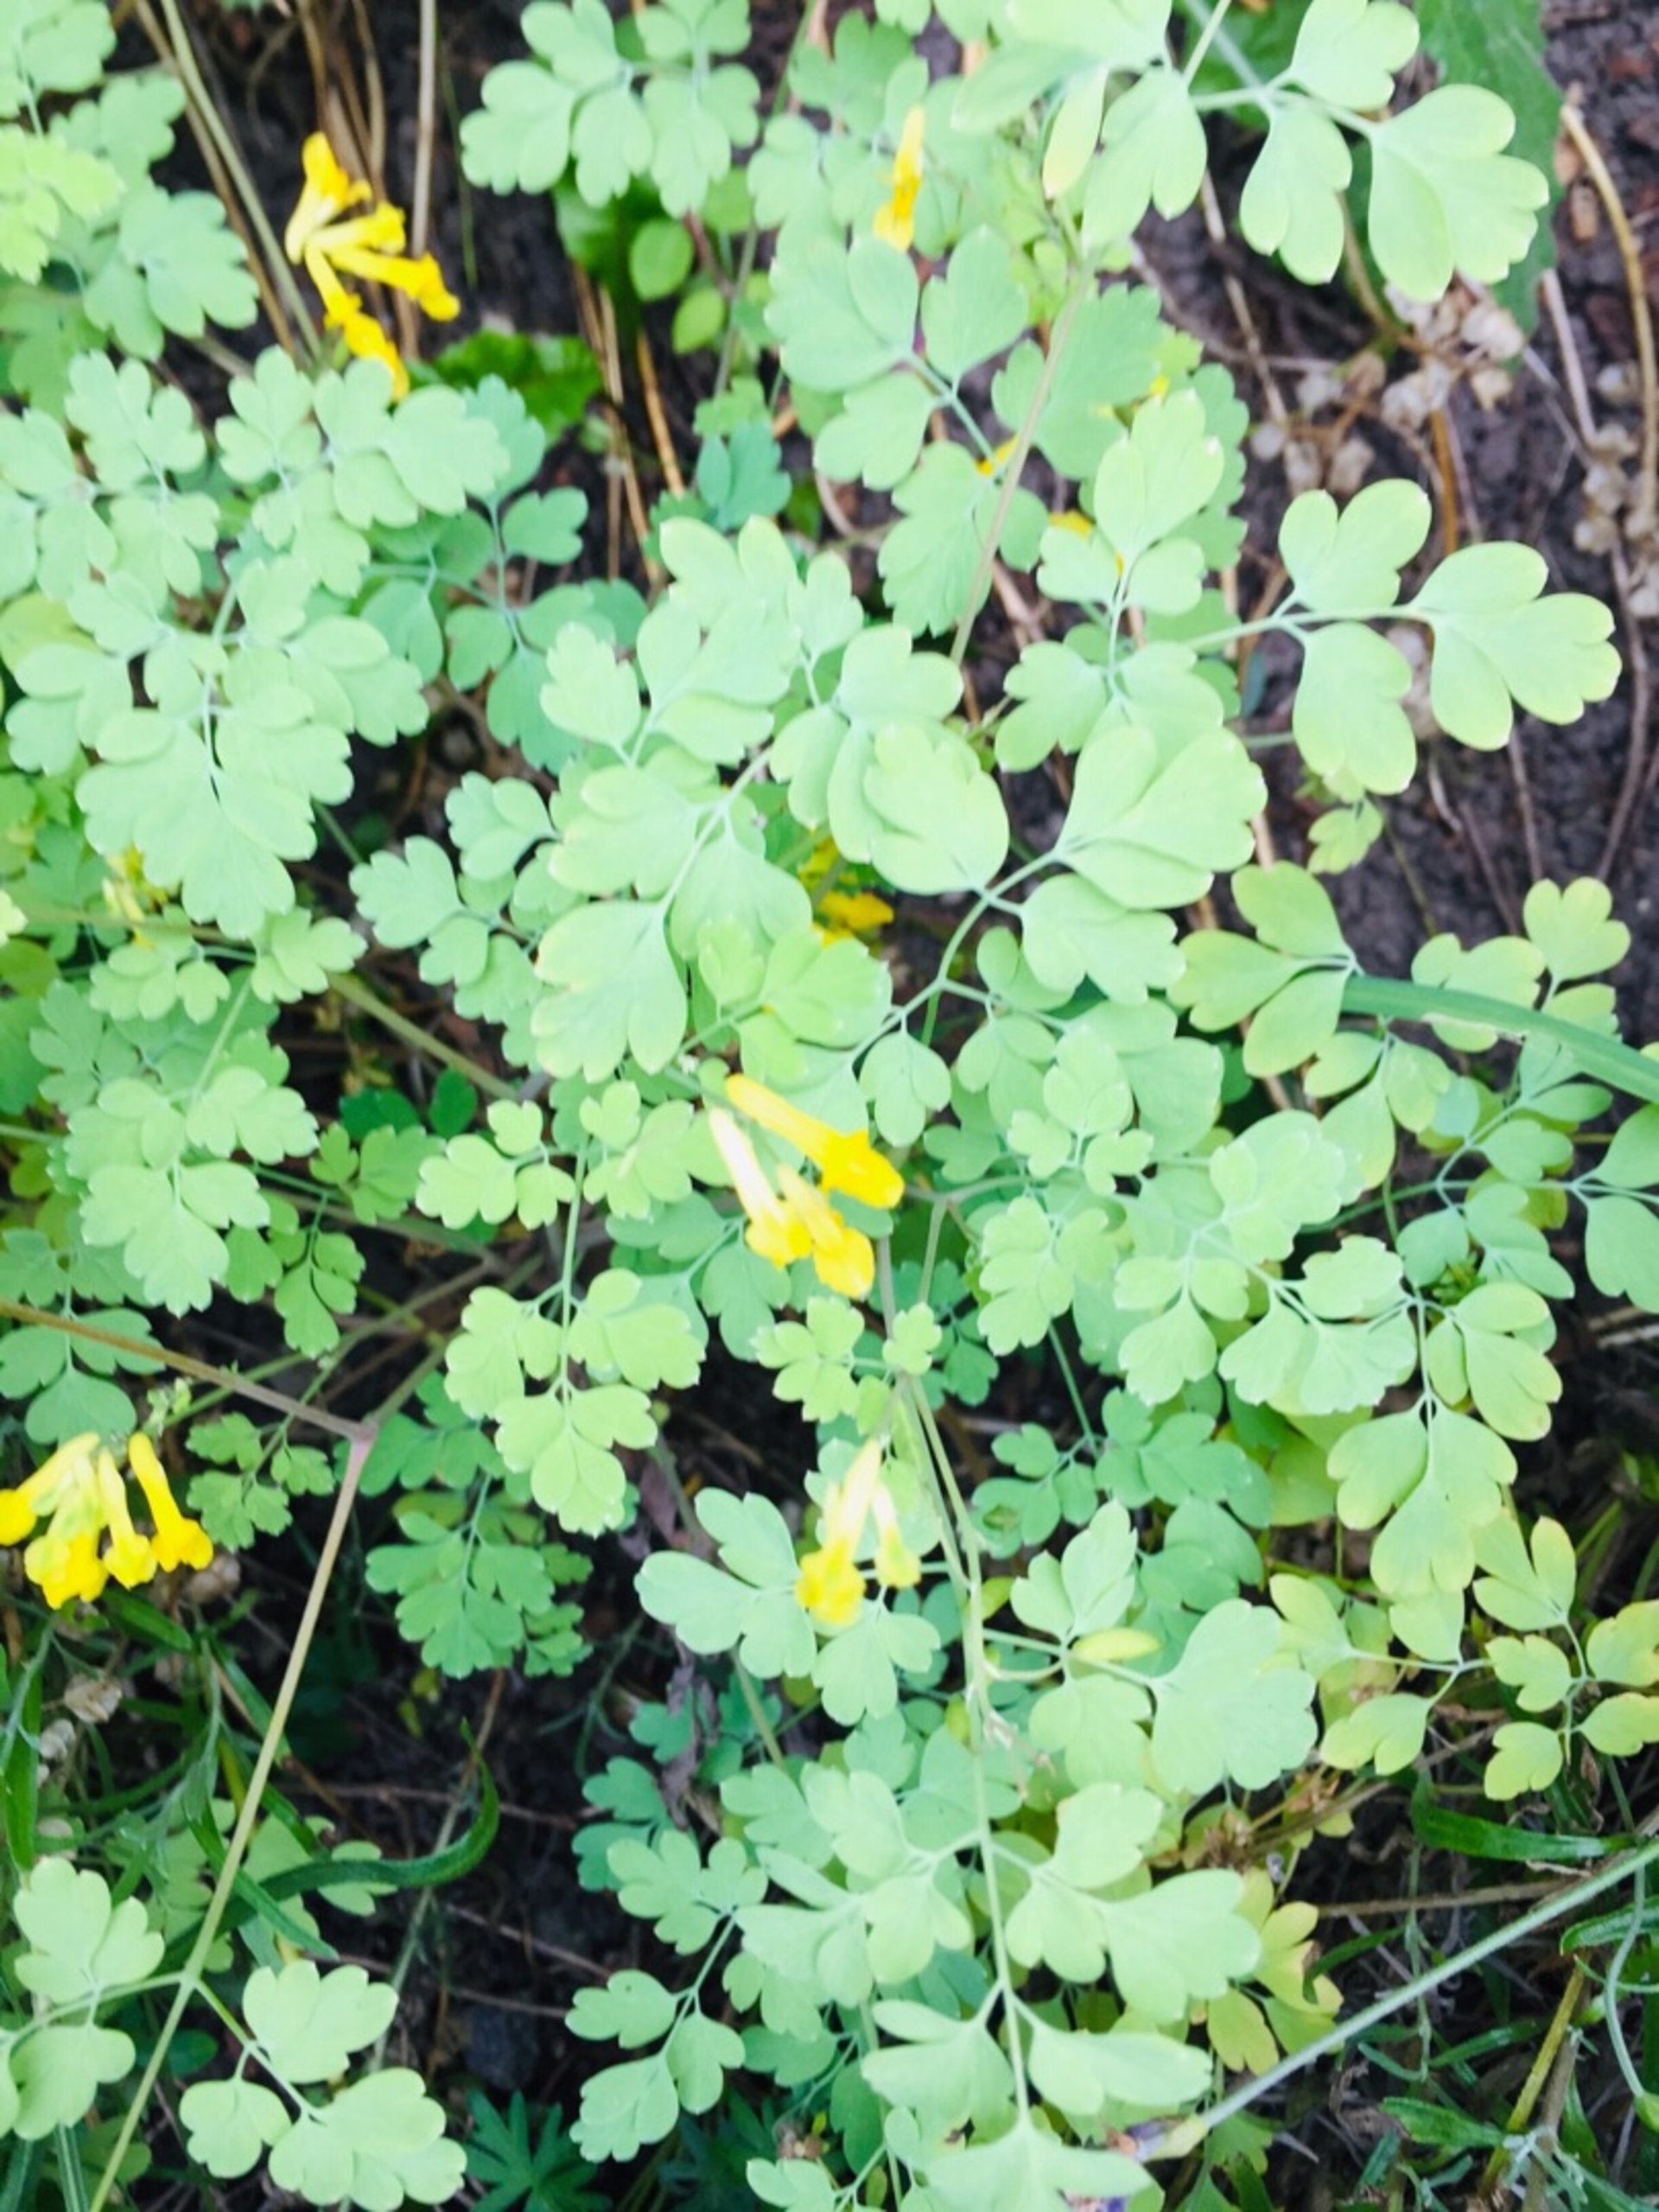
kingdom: Plantae
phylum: Tracheophyta
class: Magnoliopsida
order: Ranunculales
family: Papaveraceae
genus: Pseudofumaria
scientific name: Pseudofumaria lutea
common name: Gul lærkespore
